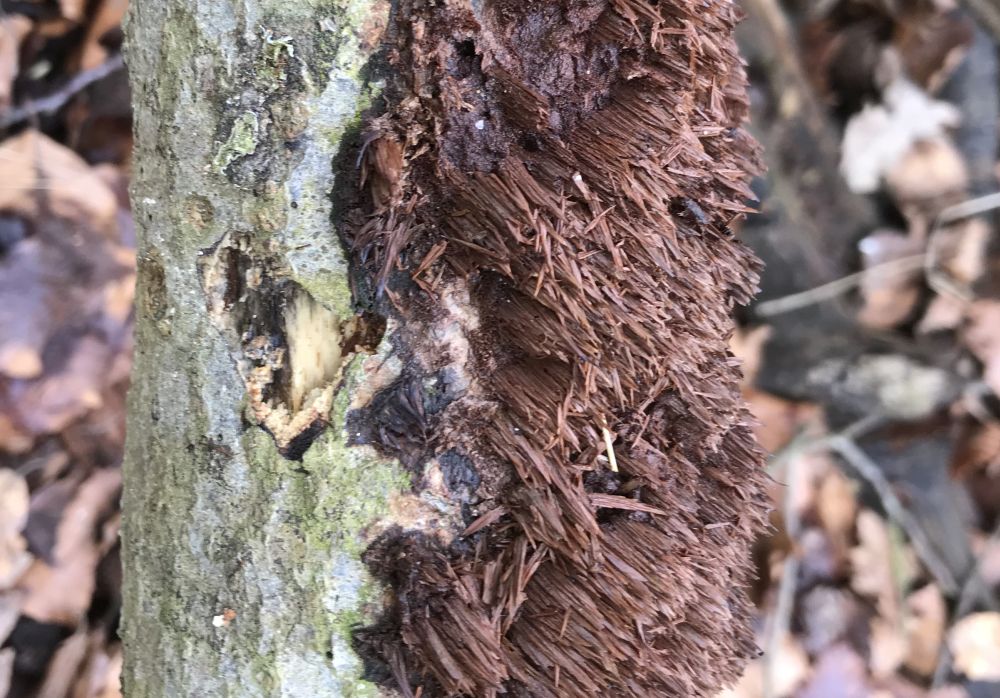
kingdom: Fungi
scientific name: Fungi
